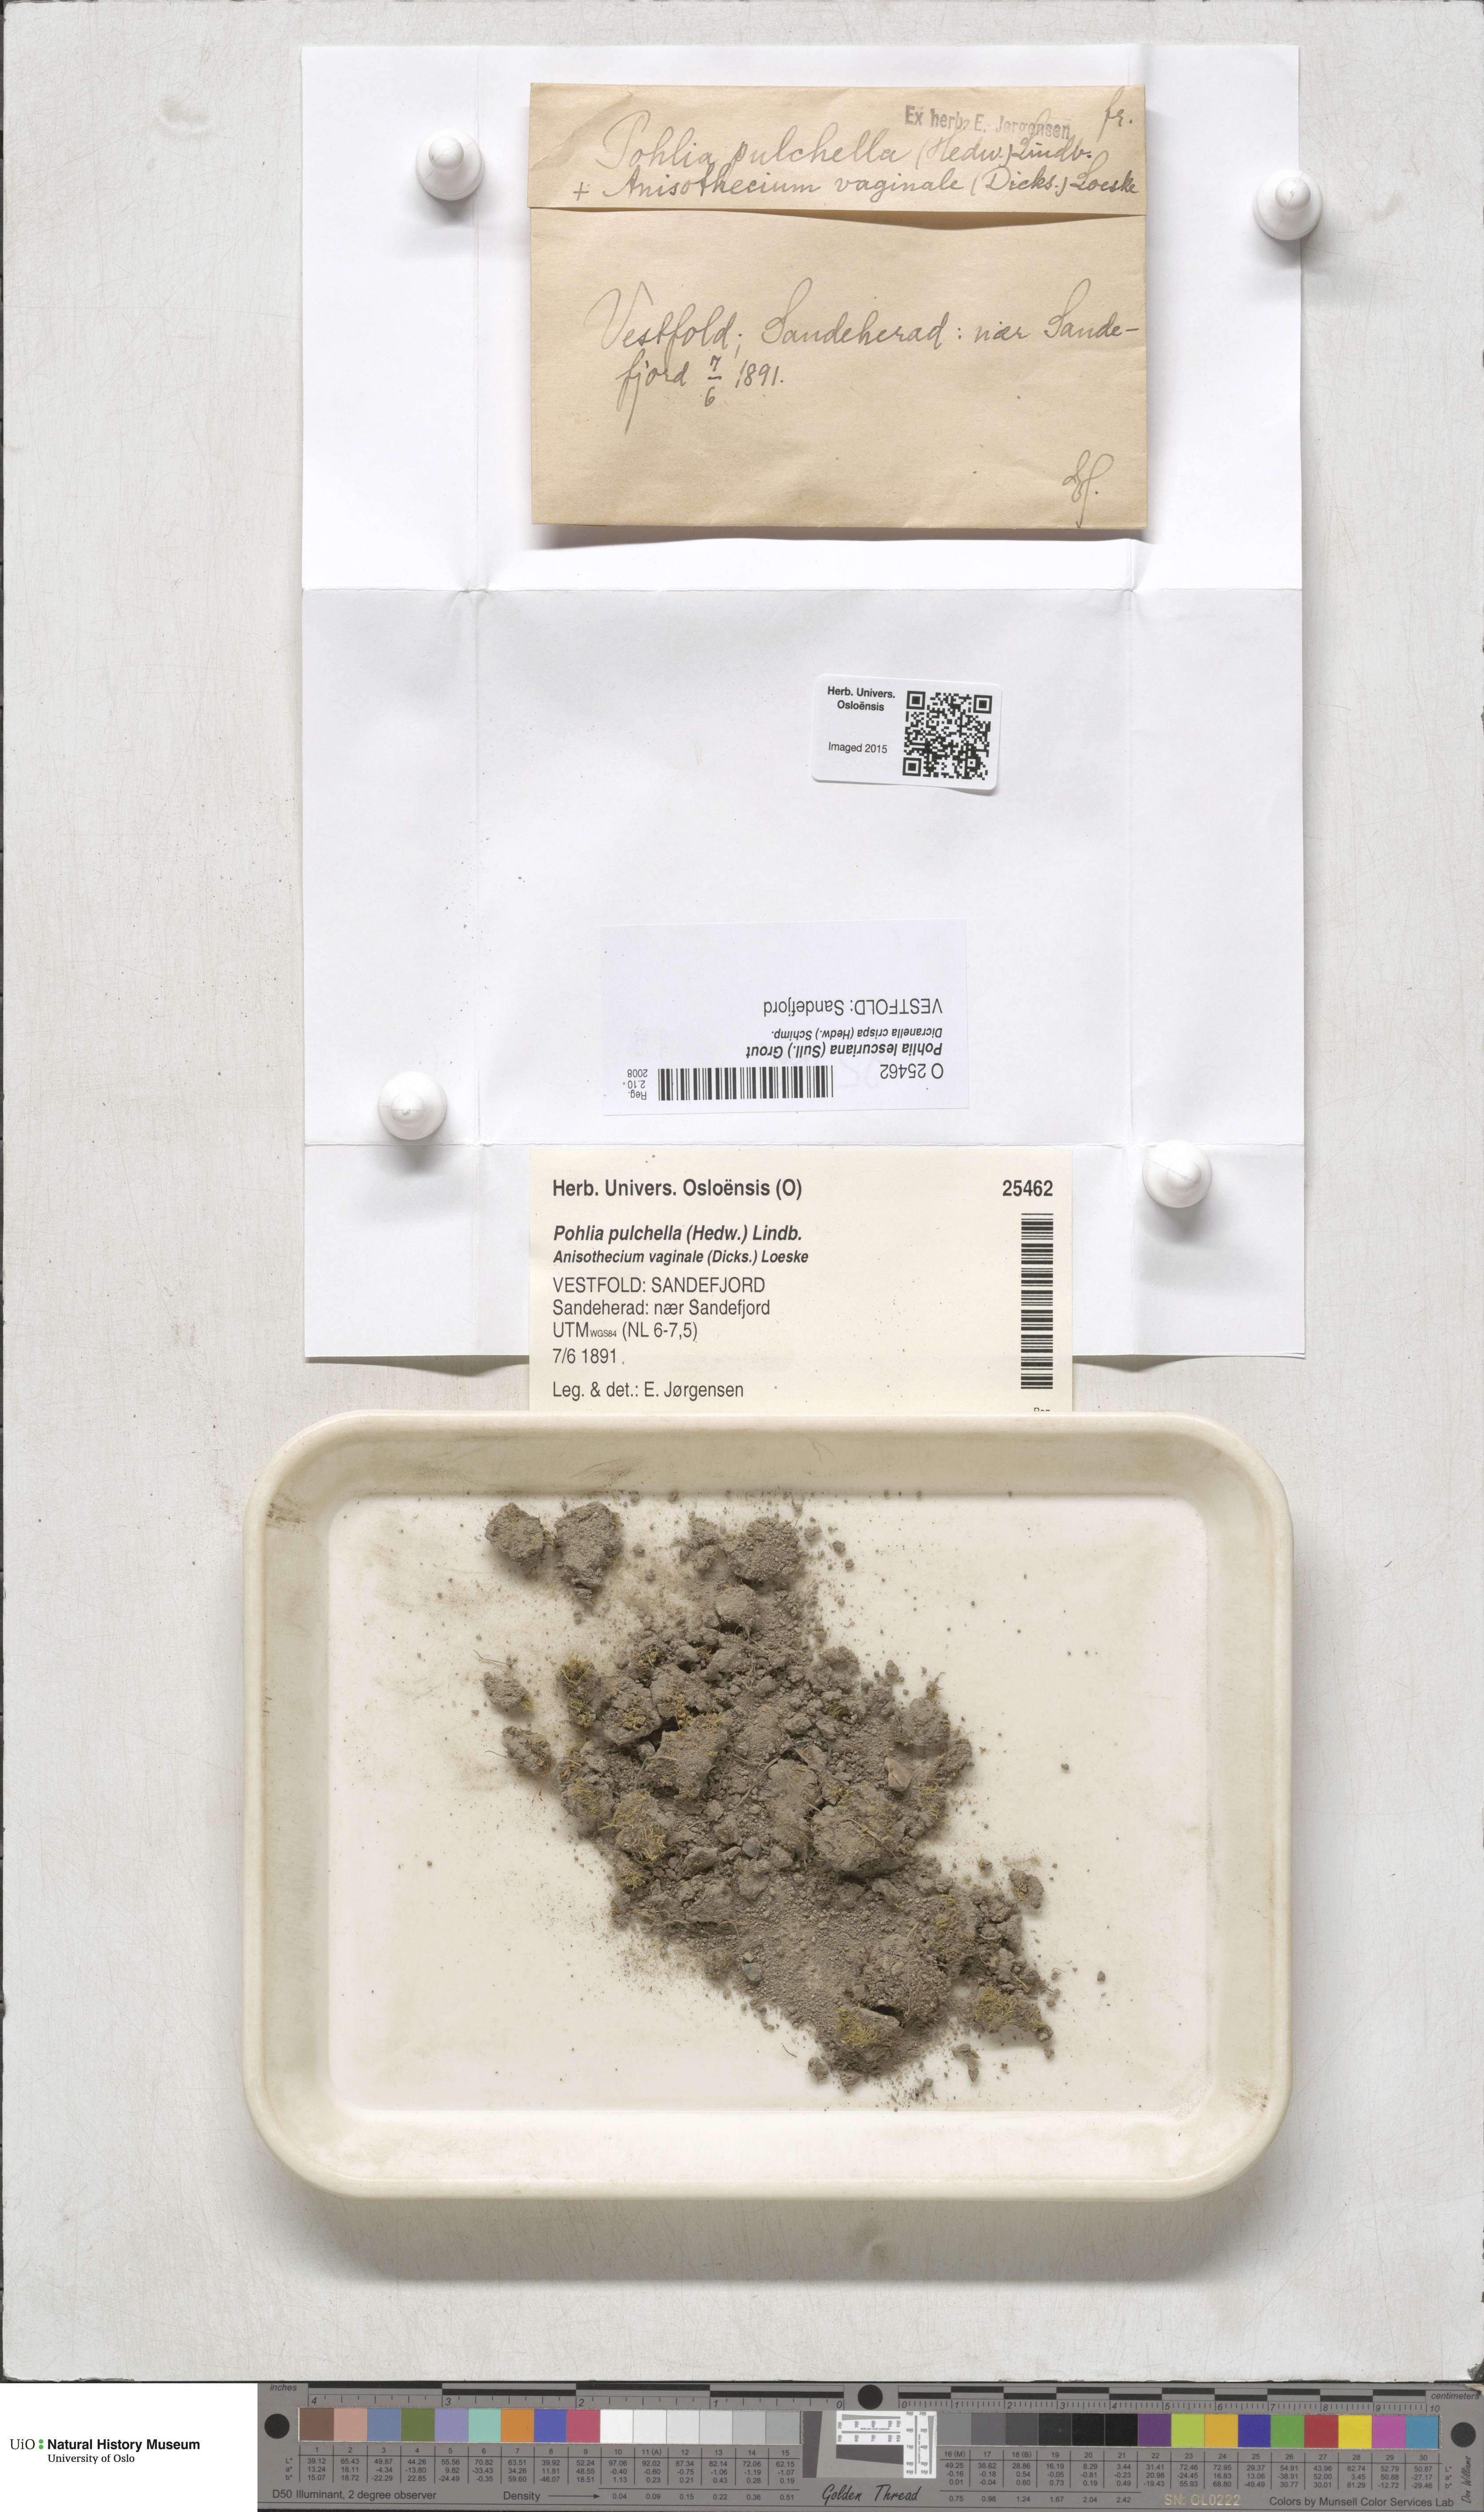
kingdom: Plantae
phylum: Bryophyta
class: Bryopsida
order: Bryales
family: Mniaceae
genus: Pohlia
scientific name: Pohlia
